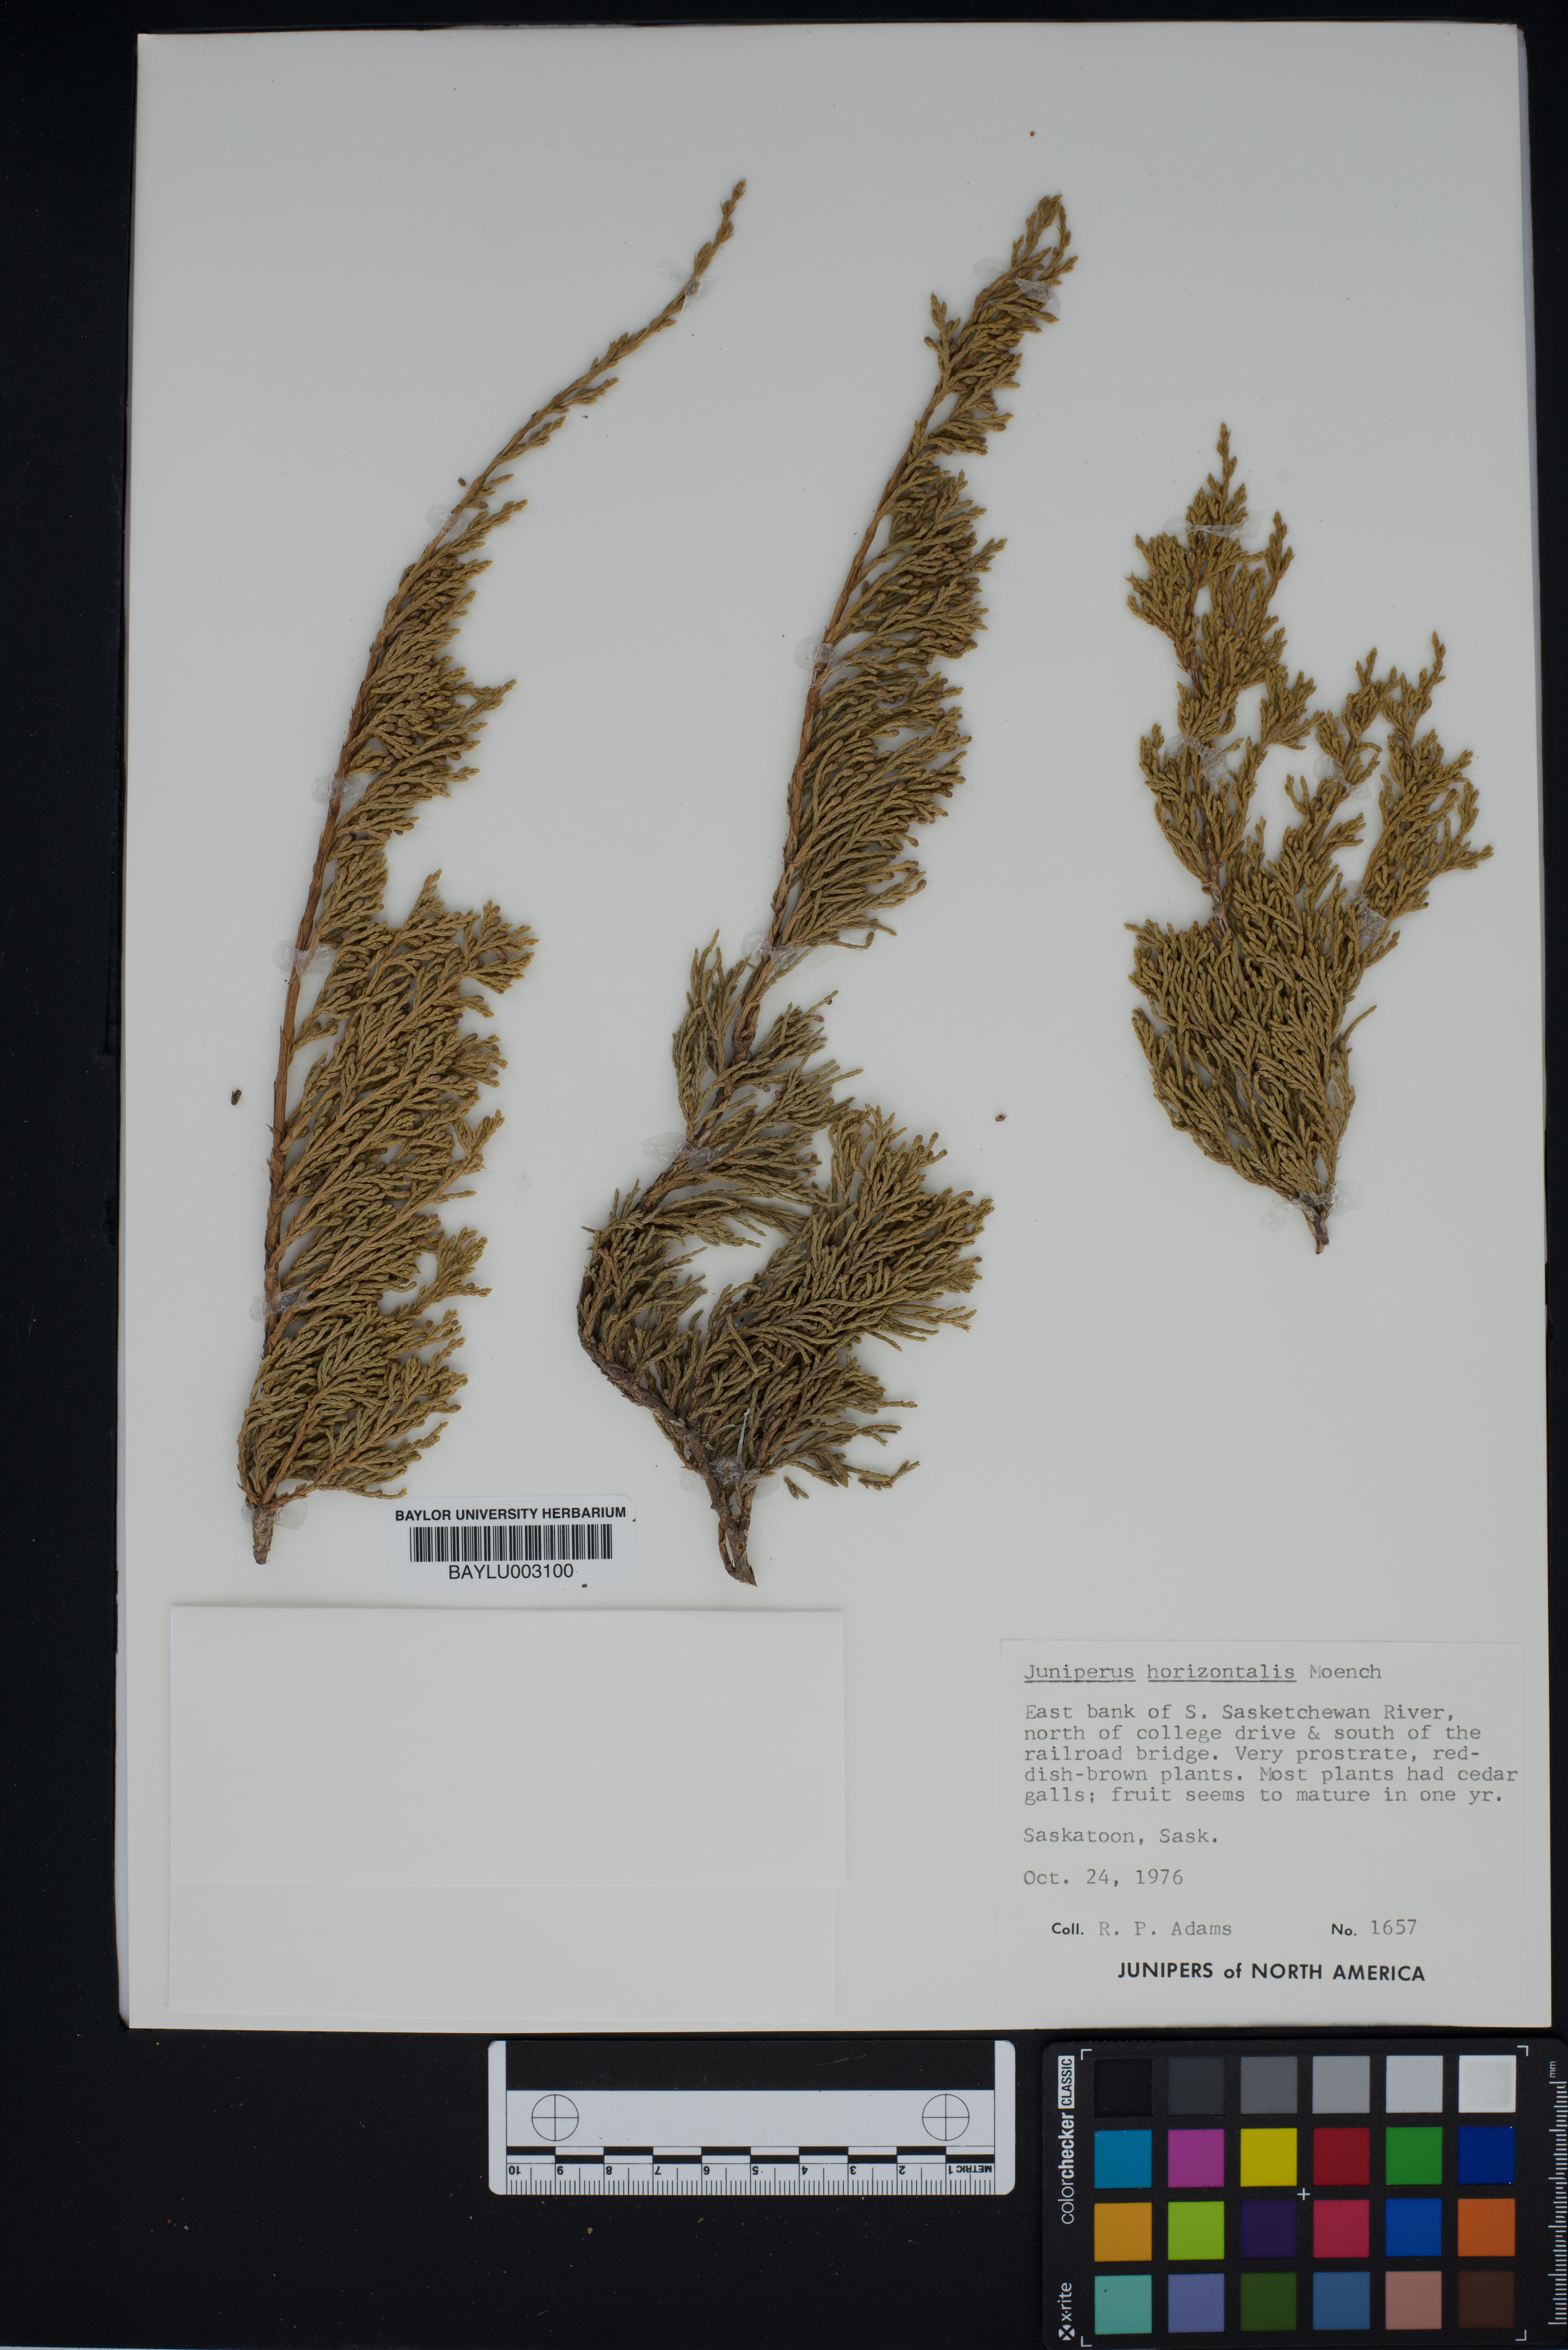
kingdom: Plantae
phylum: Tracheophyta
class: Pinopsida
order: Pinales
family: Cupressaceae
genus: Juniperus
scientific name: Juniperus horizontalis
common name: Creeping juniper
